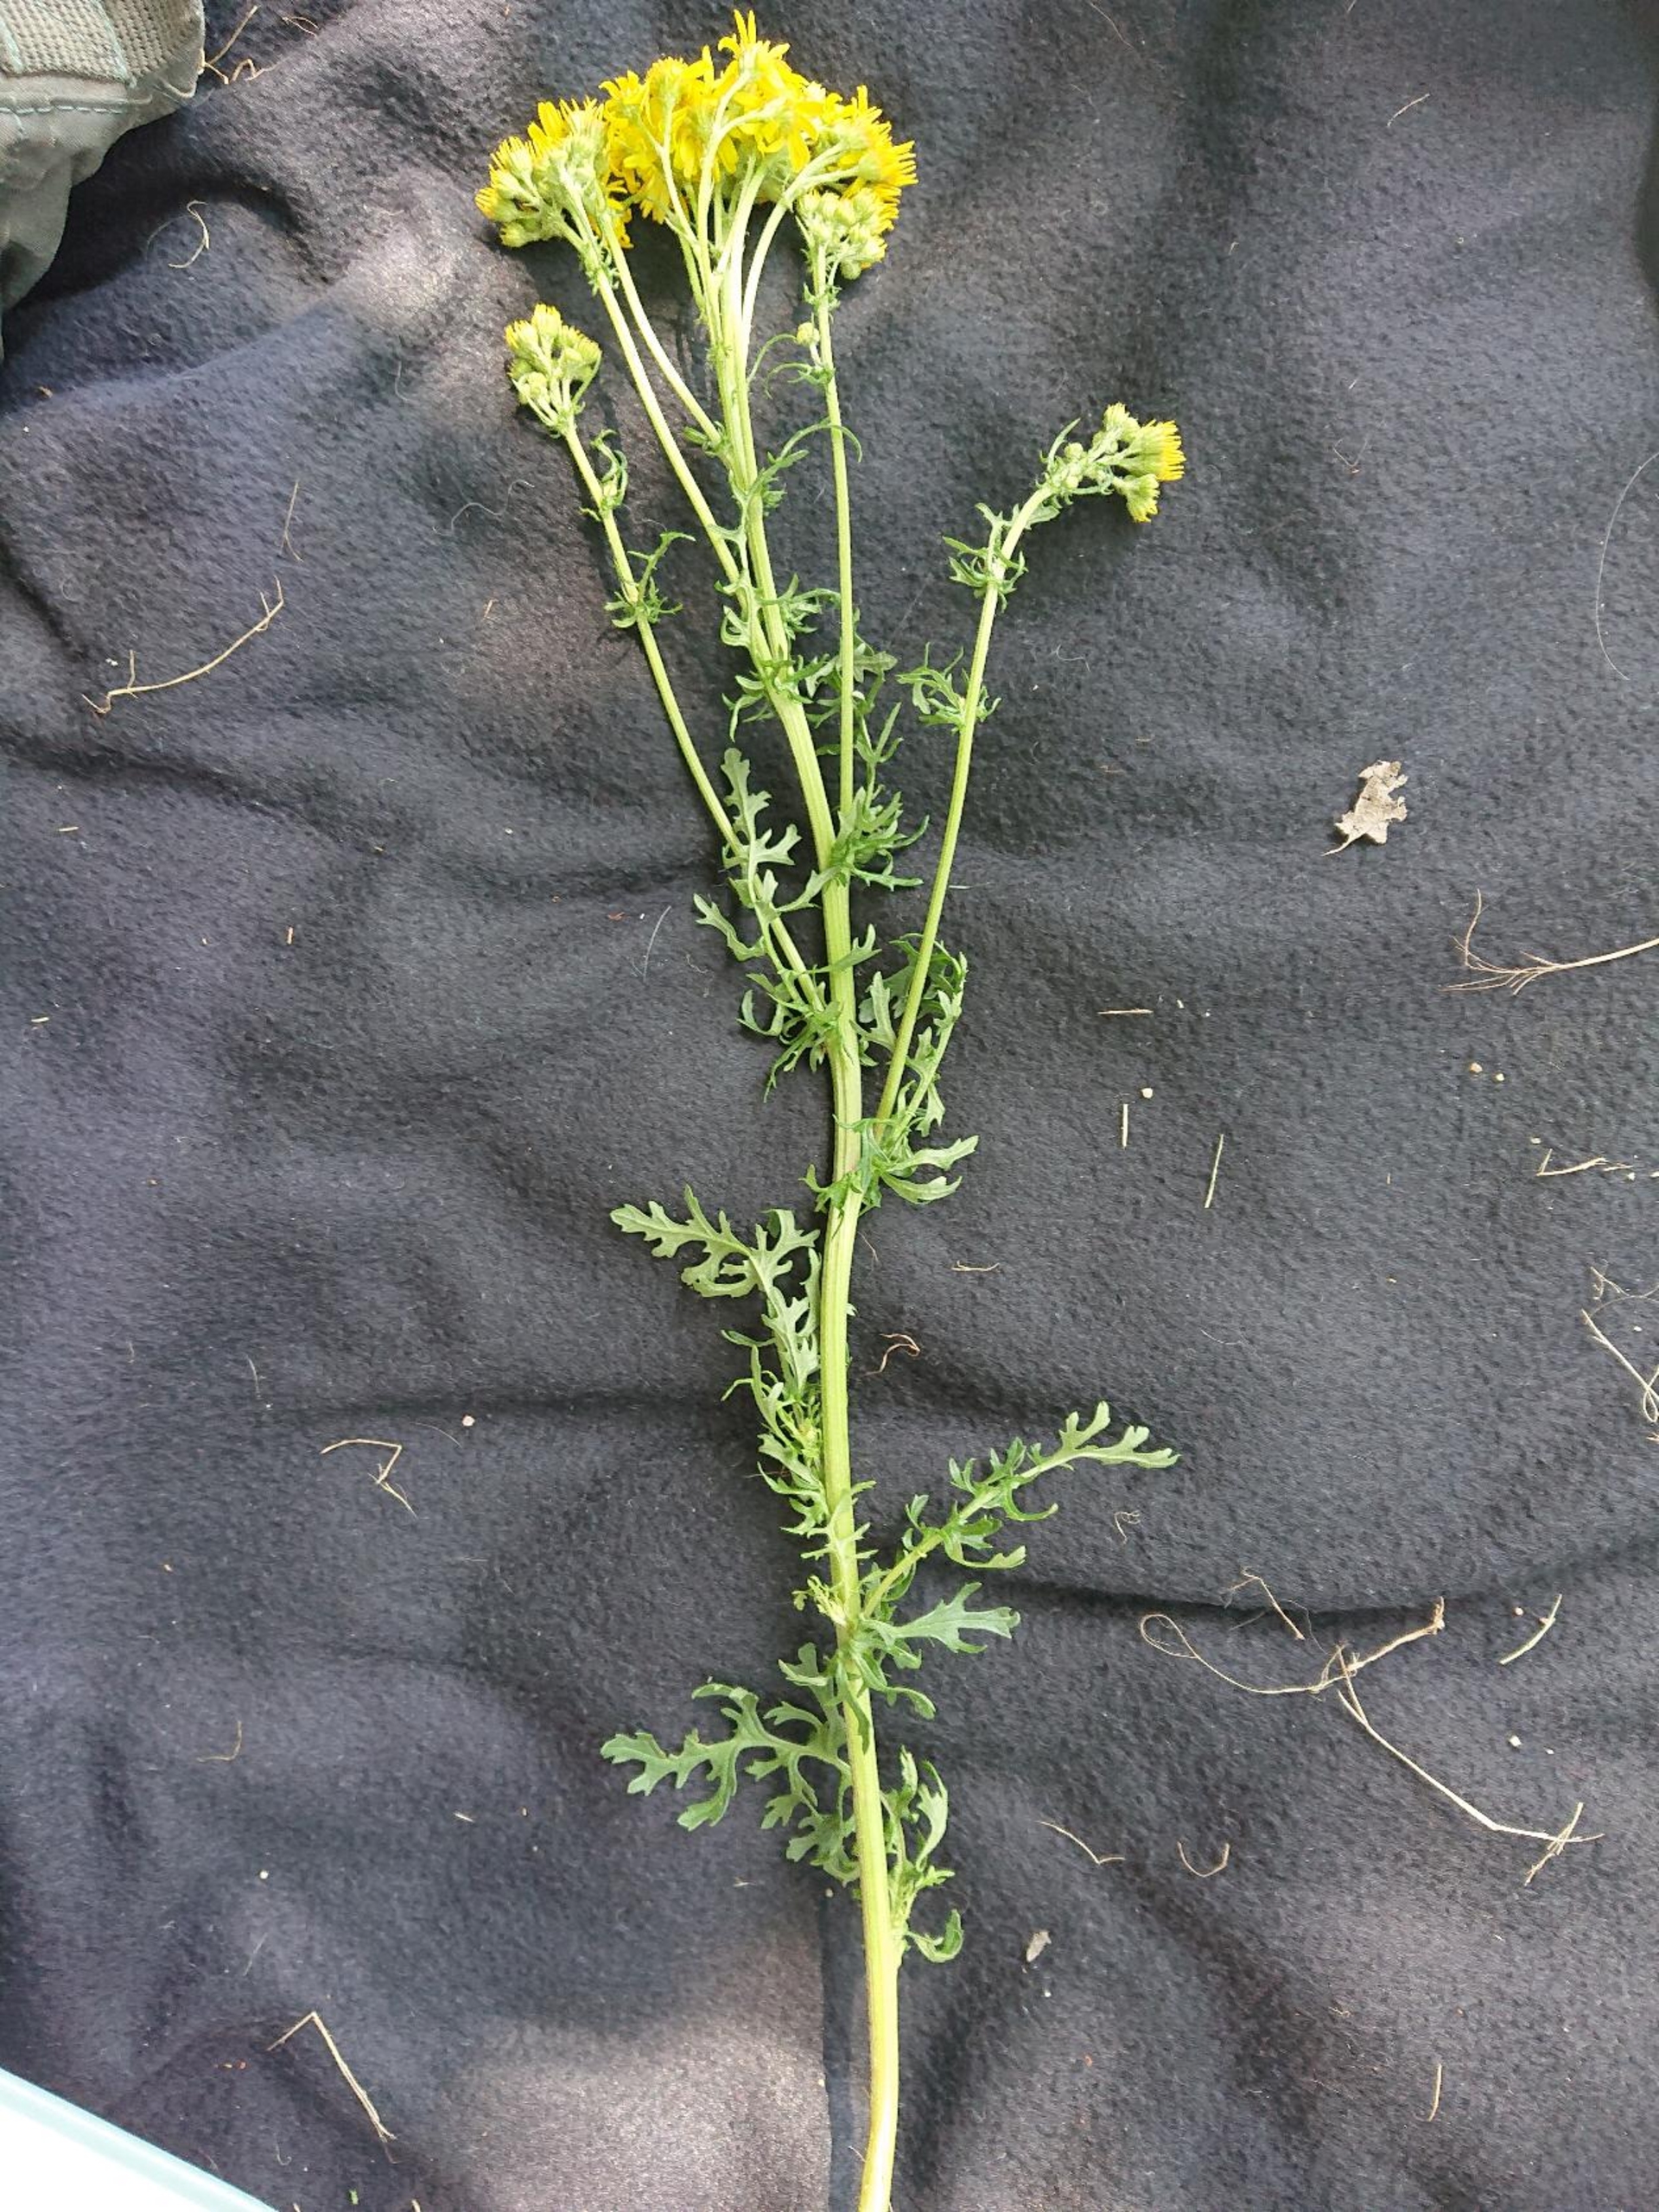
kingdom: Plantae
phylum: Tracheophyta
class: Magnoliopsida
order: Asterales
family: Asteraceae
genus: Jacobaea
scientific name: Jacobaea vulgaris
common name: Eng-brandbæger
